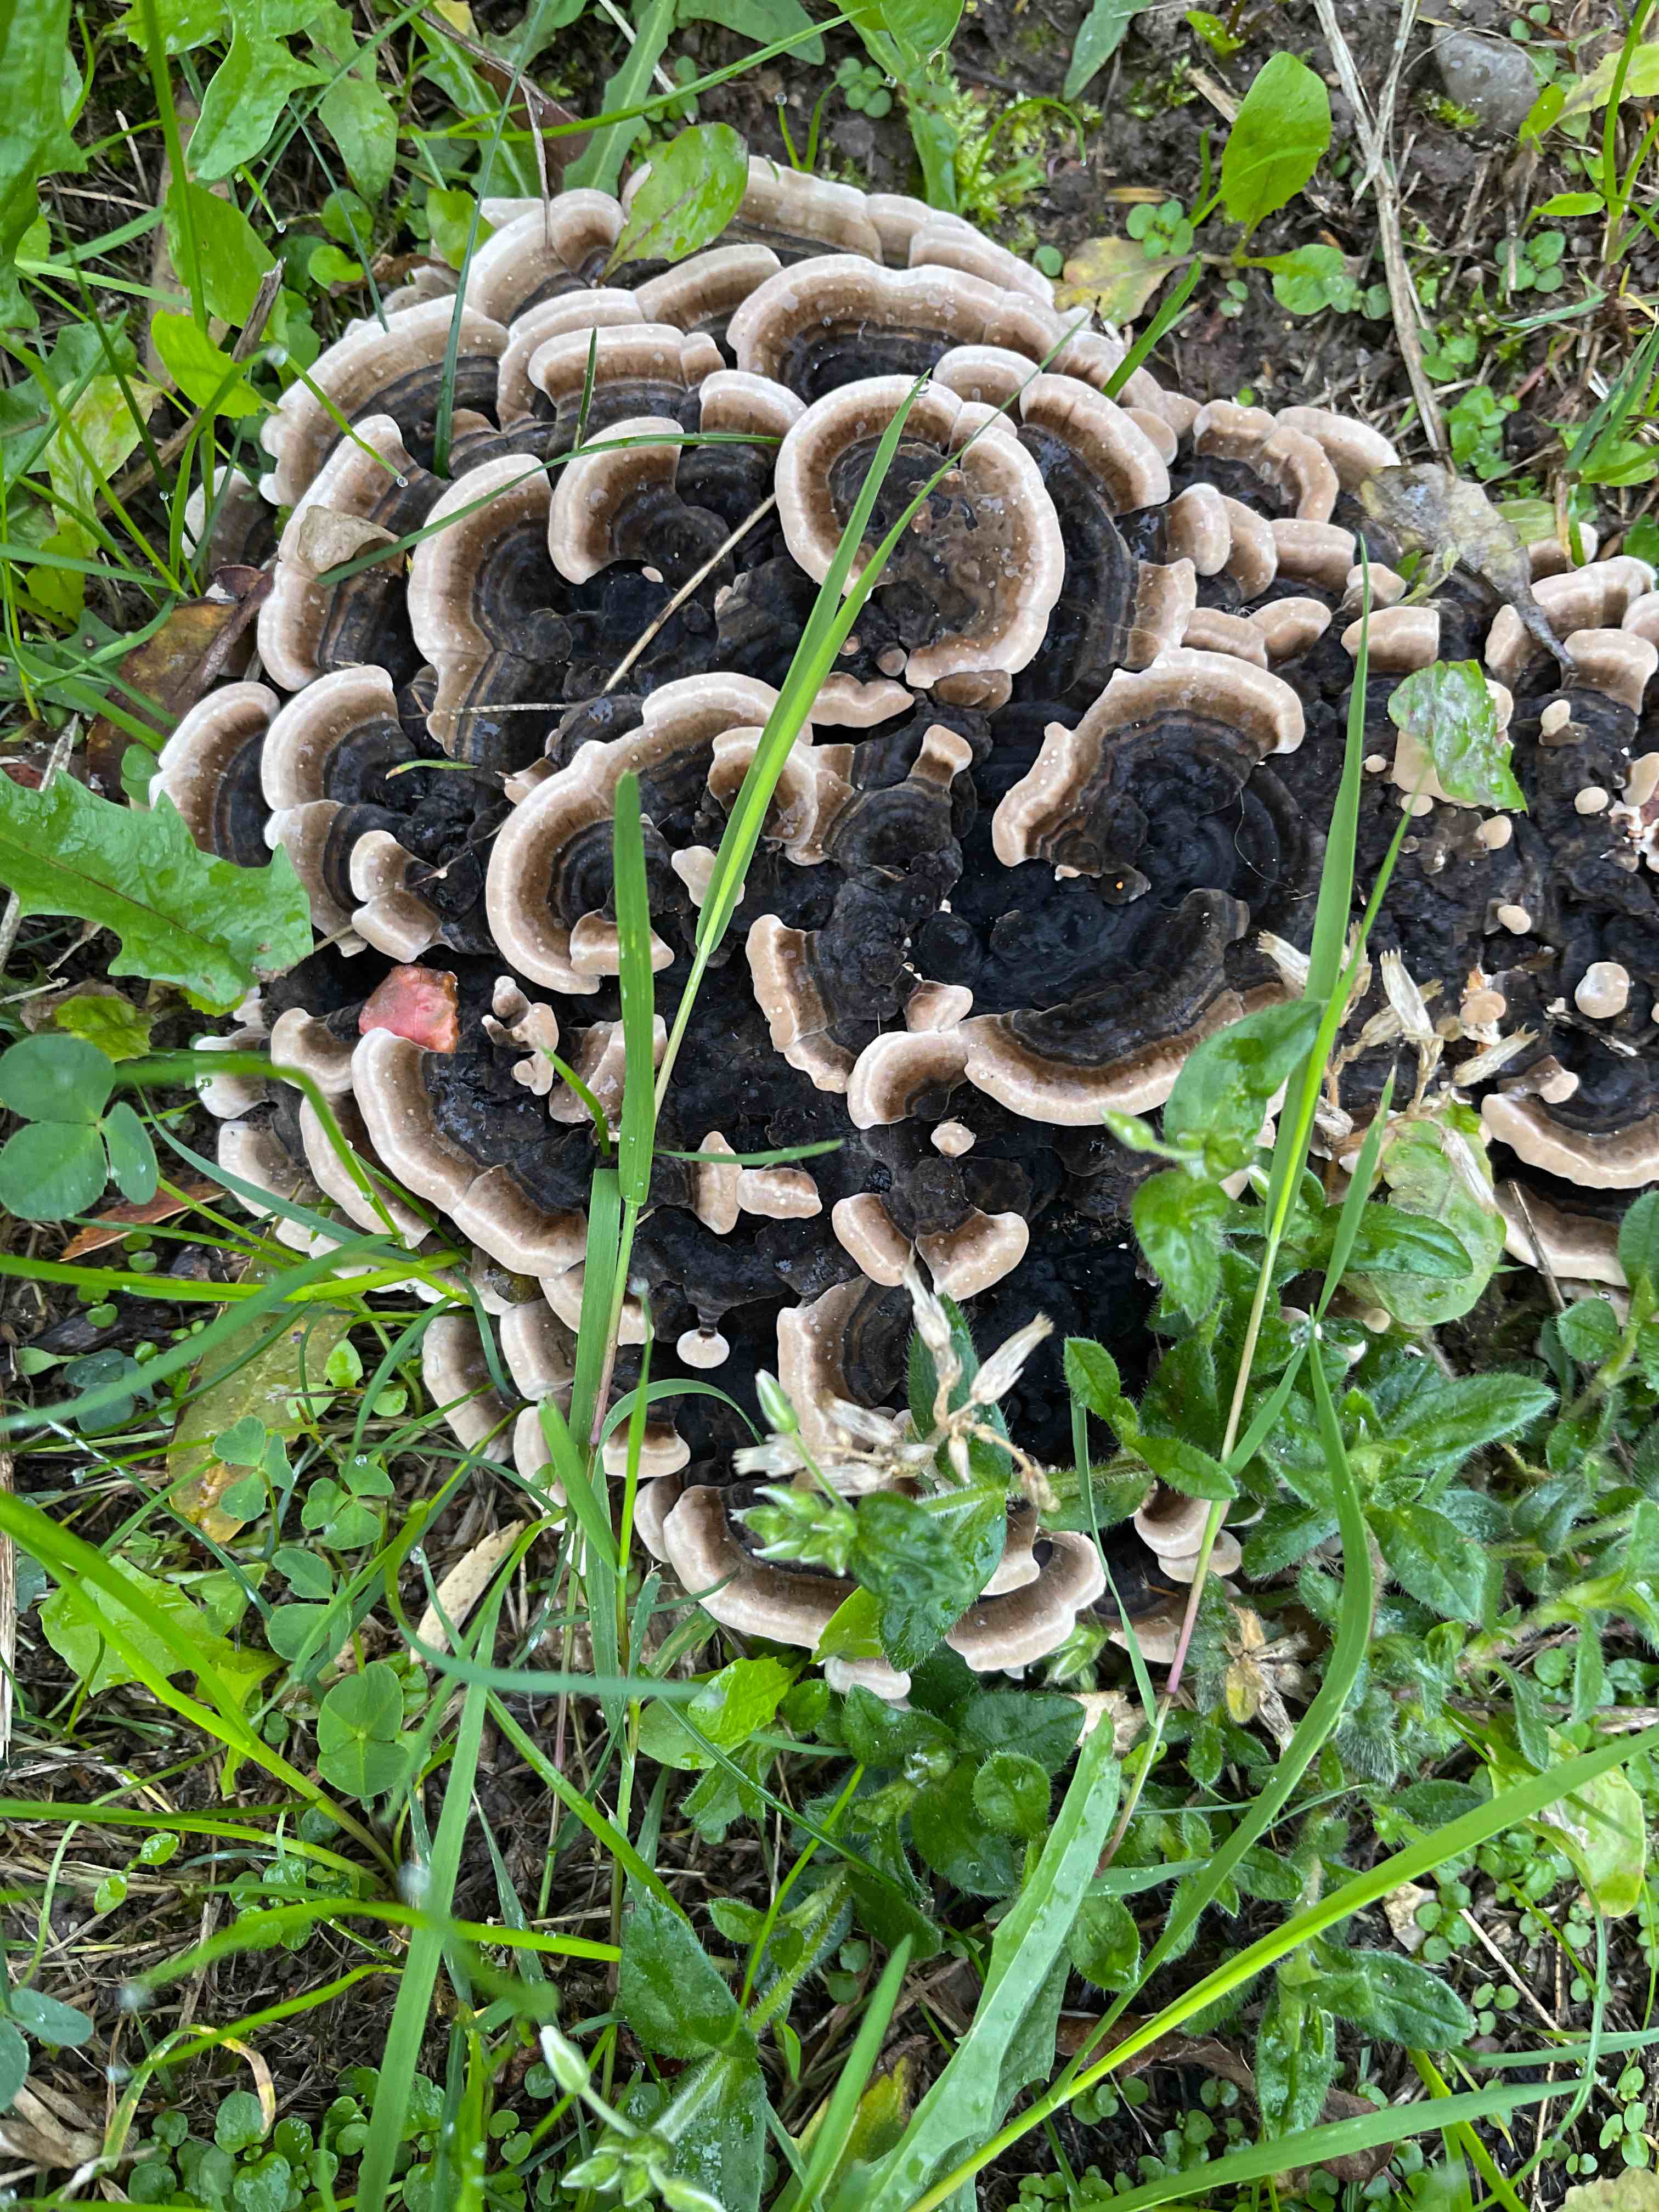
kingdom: Fungi
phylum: Basidiomycota
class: Agaricomycetes
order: Polyporales
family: Polyporaceae
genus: Trametes
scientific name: Trametes versicolor
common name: broget læderporesvamp
